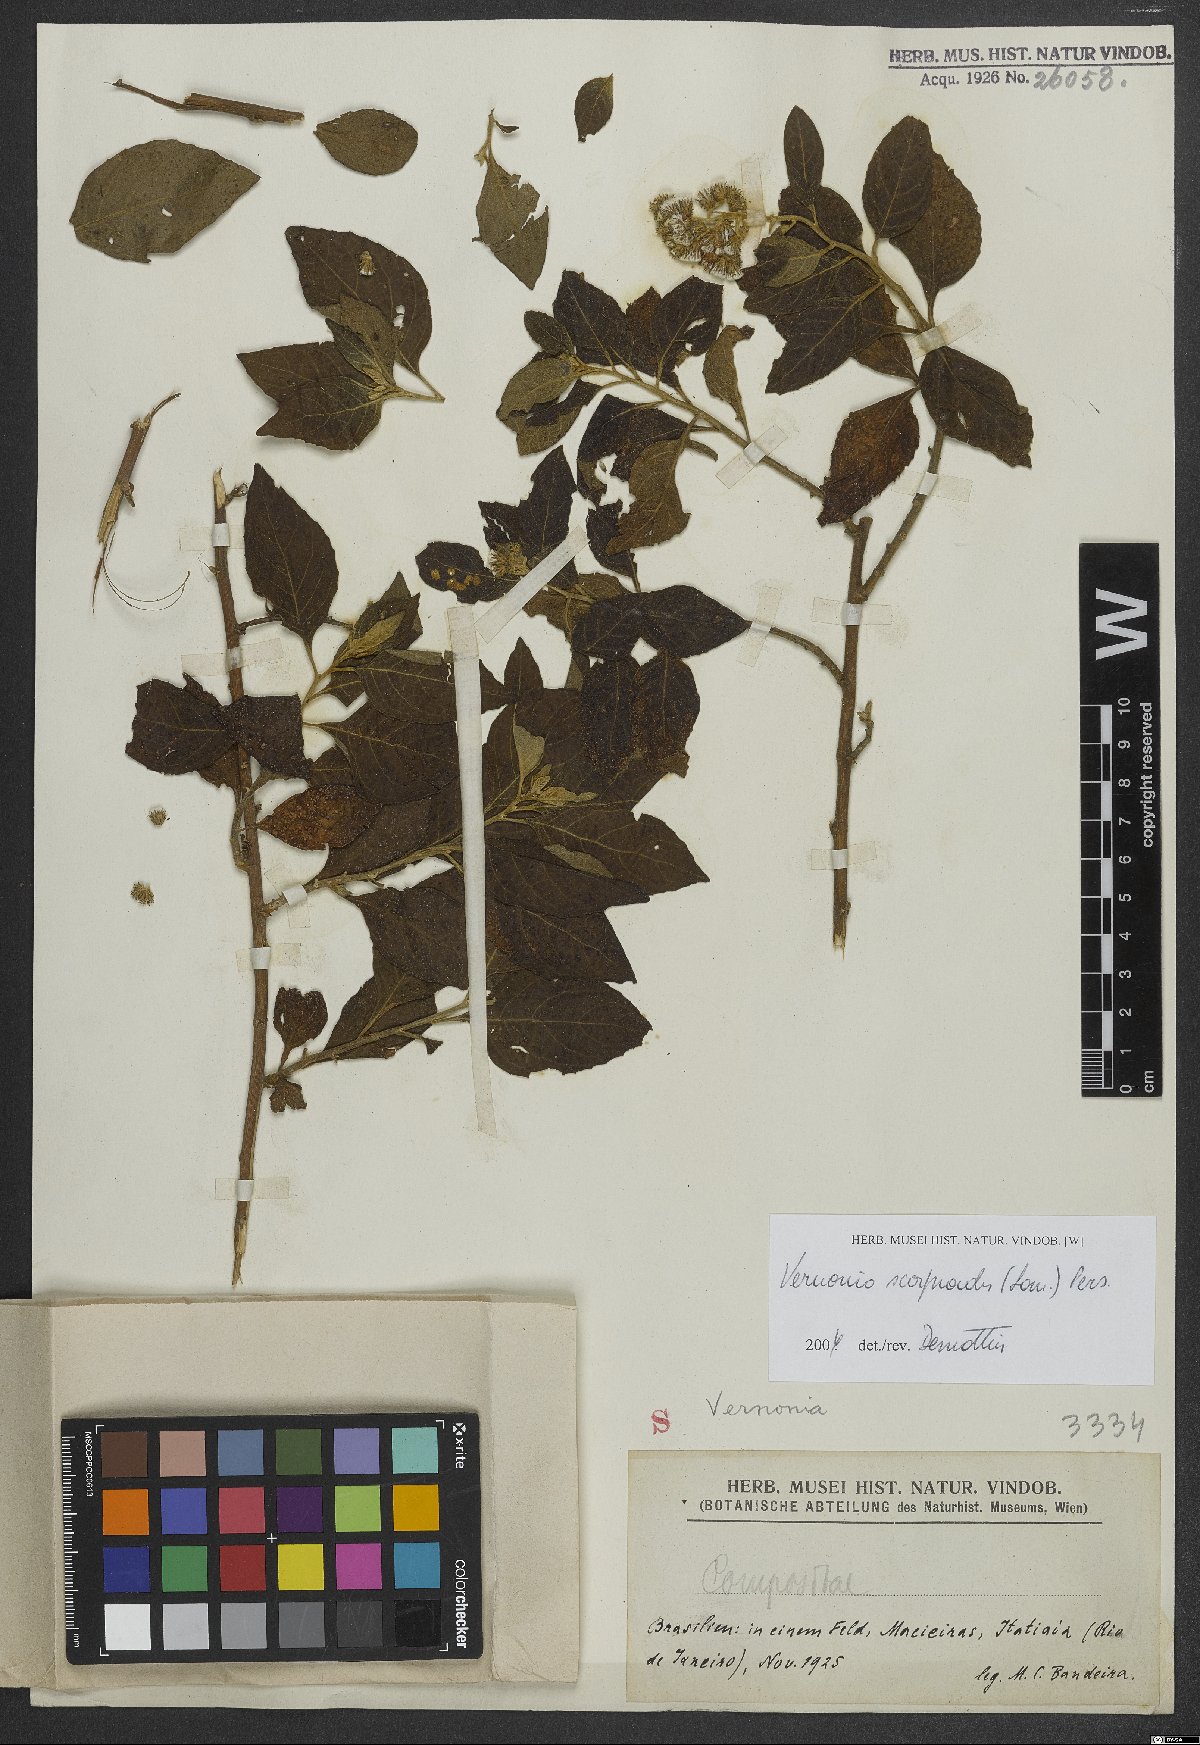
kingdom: Plantae
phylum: Tracheophyta
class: Magnoliopsida
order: Asterales
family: Asteraceae
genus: Cyrtocymura
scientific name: Cyrtocymura scorpioides
